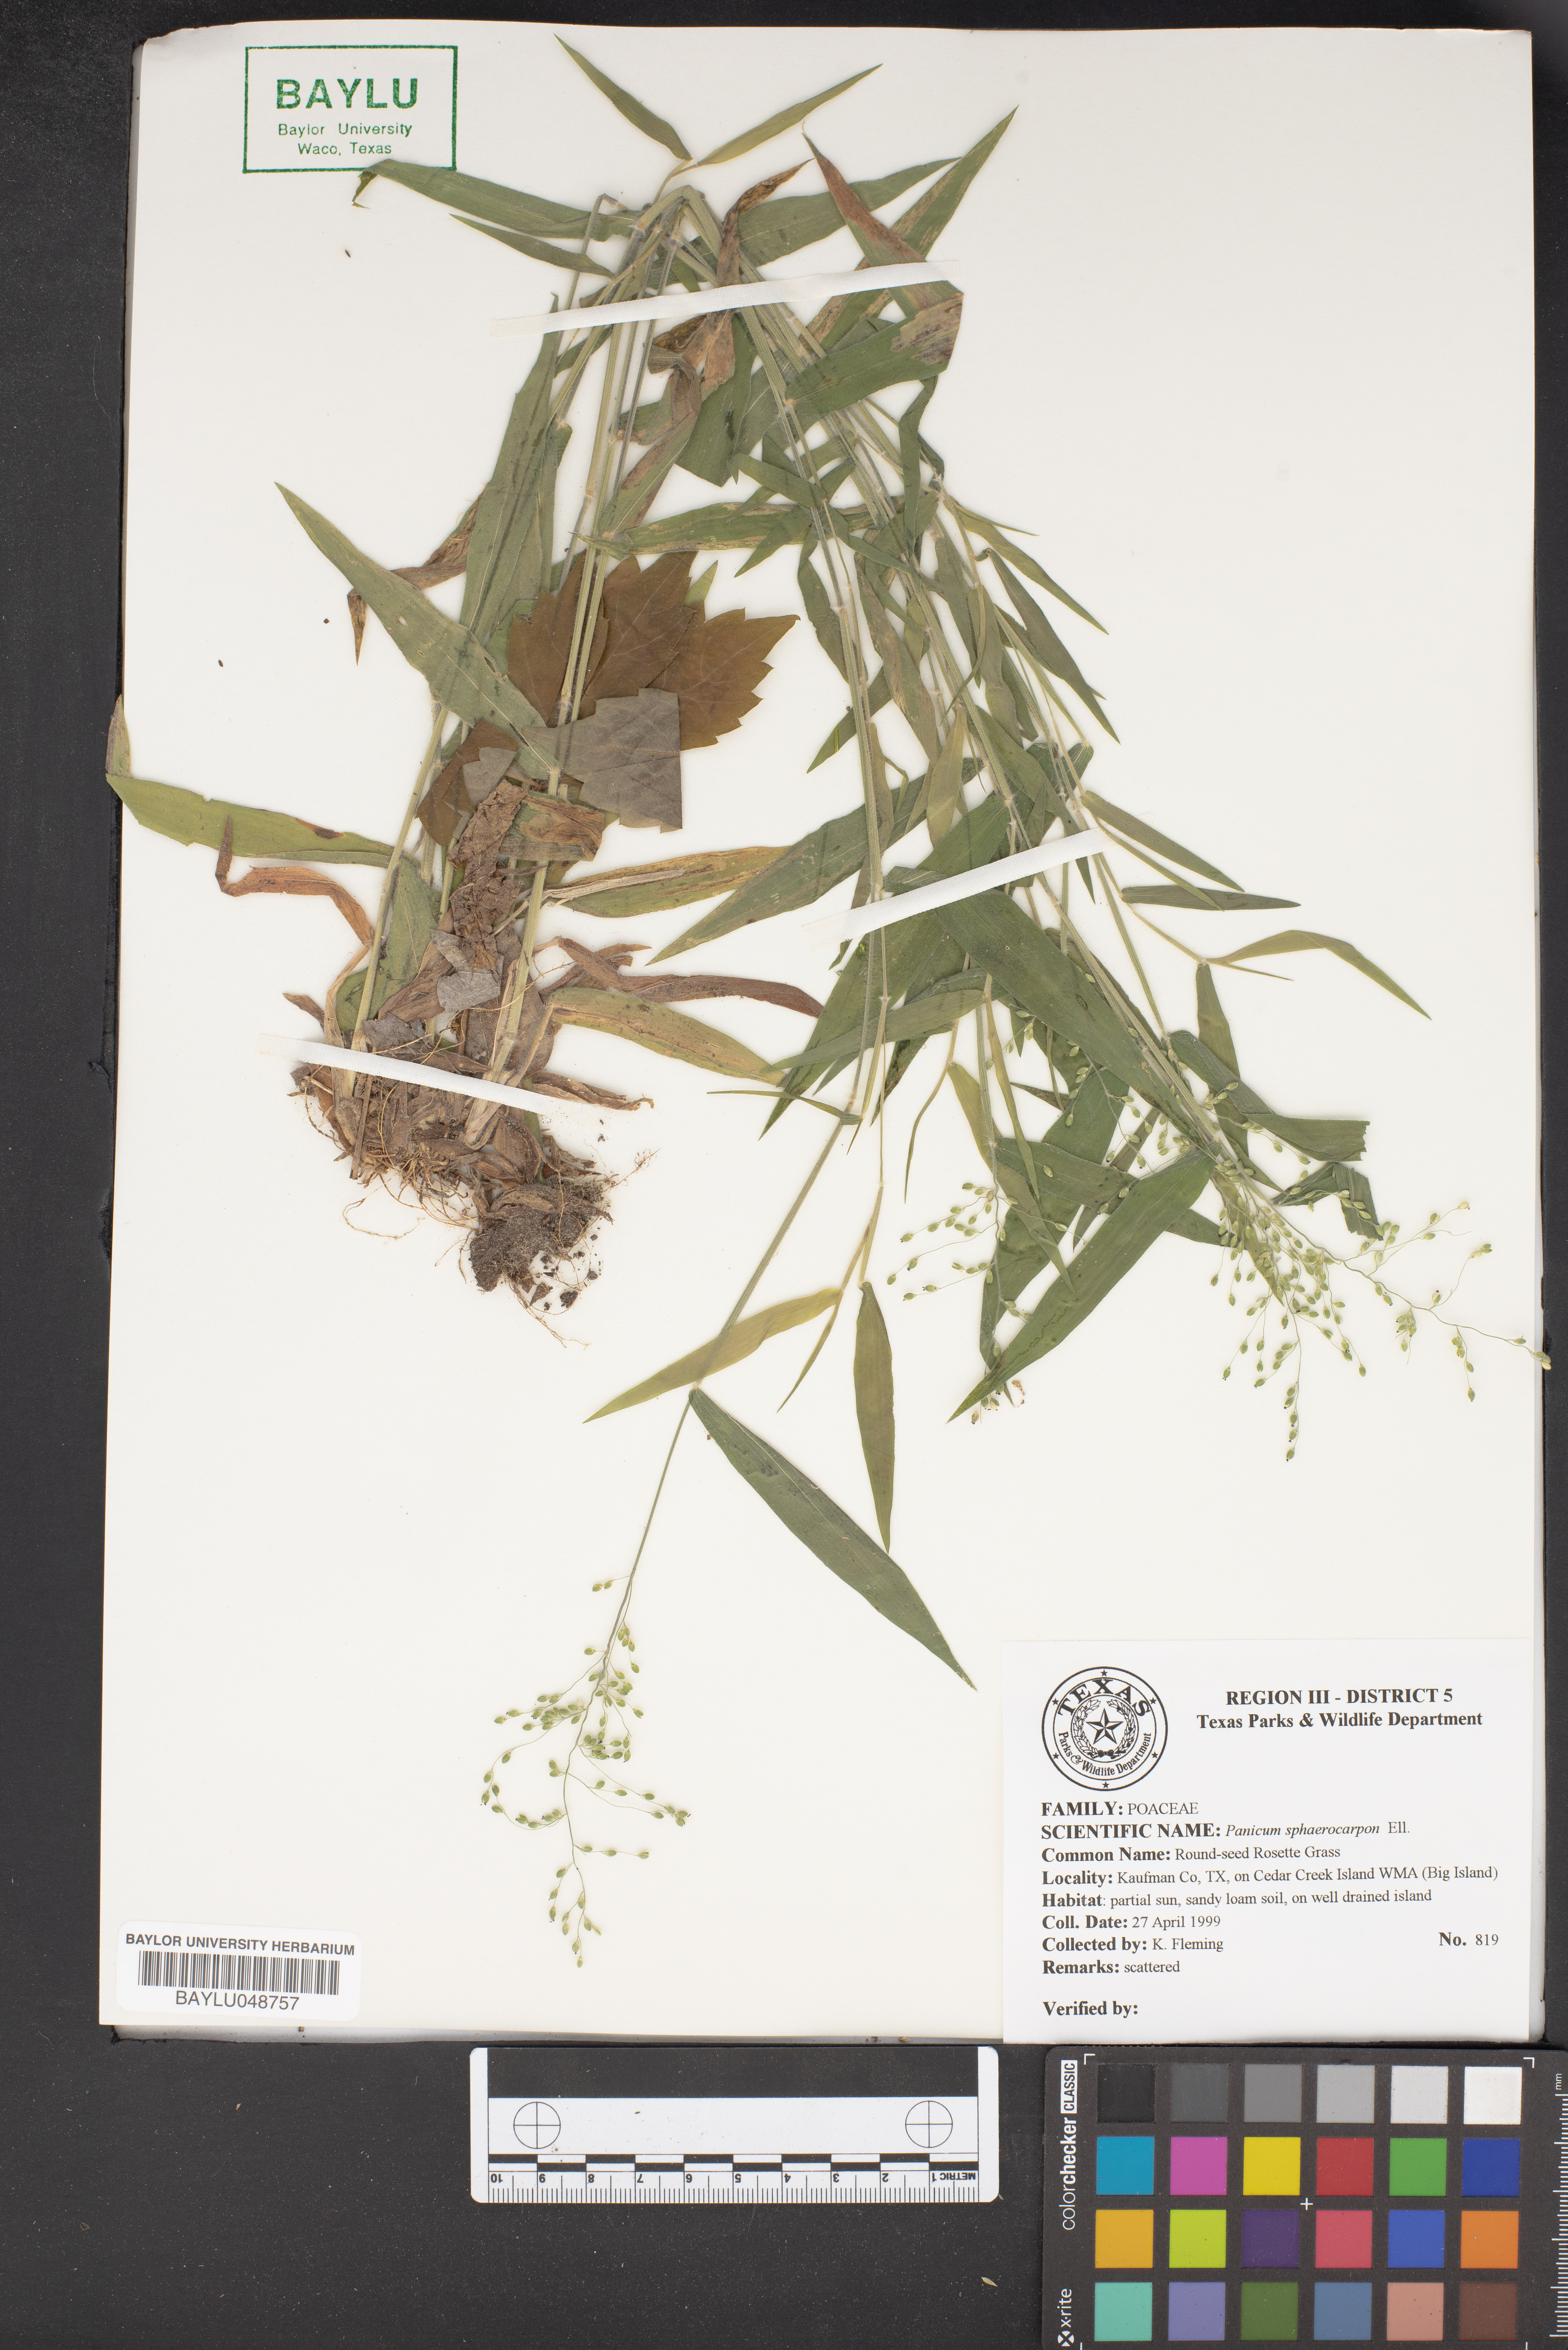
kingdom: Plantae
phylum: Tracheophyta
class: Liliopsida
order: Poales
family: Poaceae
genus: Dichanthelium
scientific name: Dichanthelium sphaerocarpon
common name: Round-fruited panicgrass
